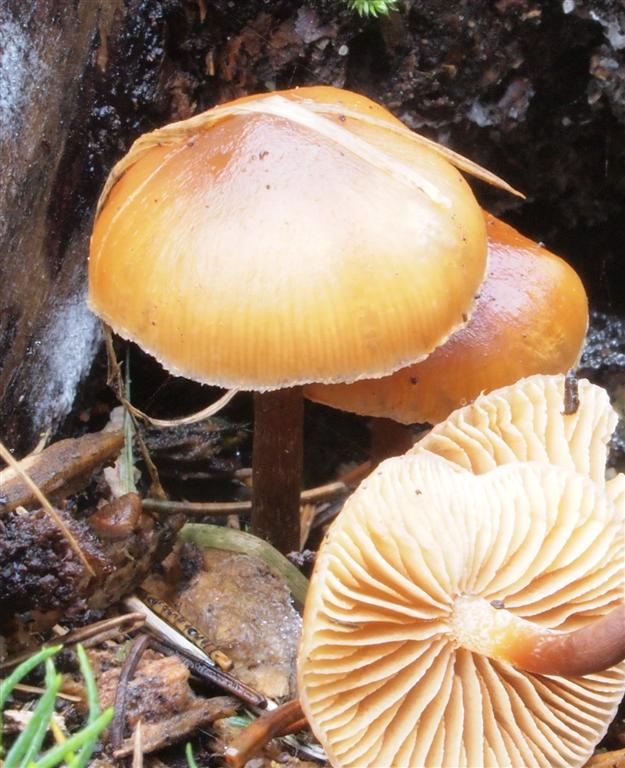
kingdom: Fungi
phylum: Basidiomycota
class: Agaricomycetes
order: Agaricales
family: Hymenogastraceae
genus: Galerina
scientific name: Galerina sideroides
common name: træflis-hjelmhat
